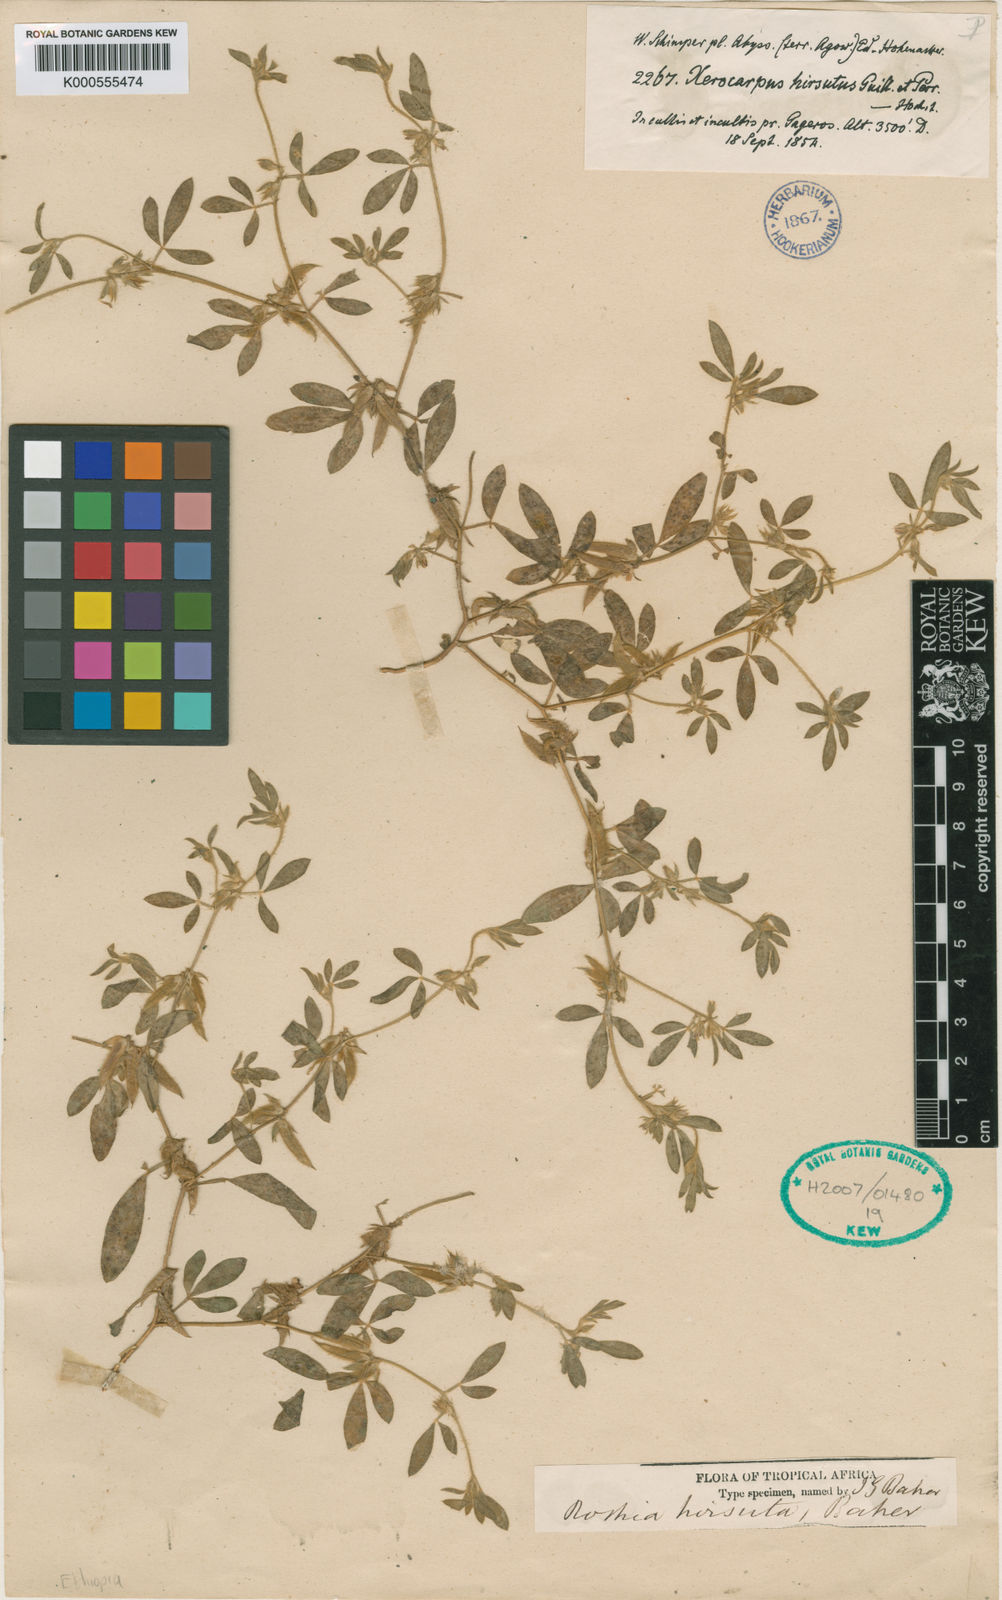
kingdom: Plantae
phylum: Tracheophyta
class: Magnoliopsida
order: Fabales
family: Fabaceae
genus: Rothia
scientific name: Rothia hirsuta
